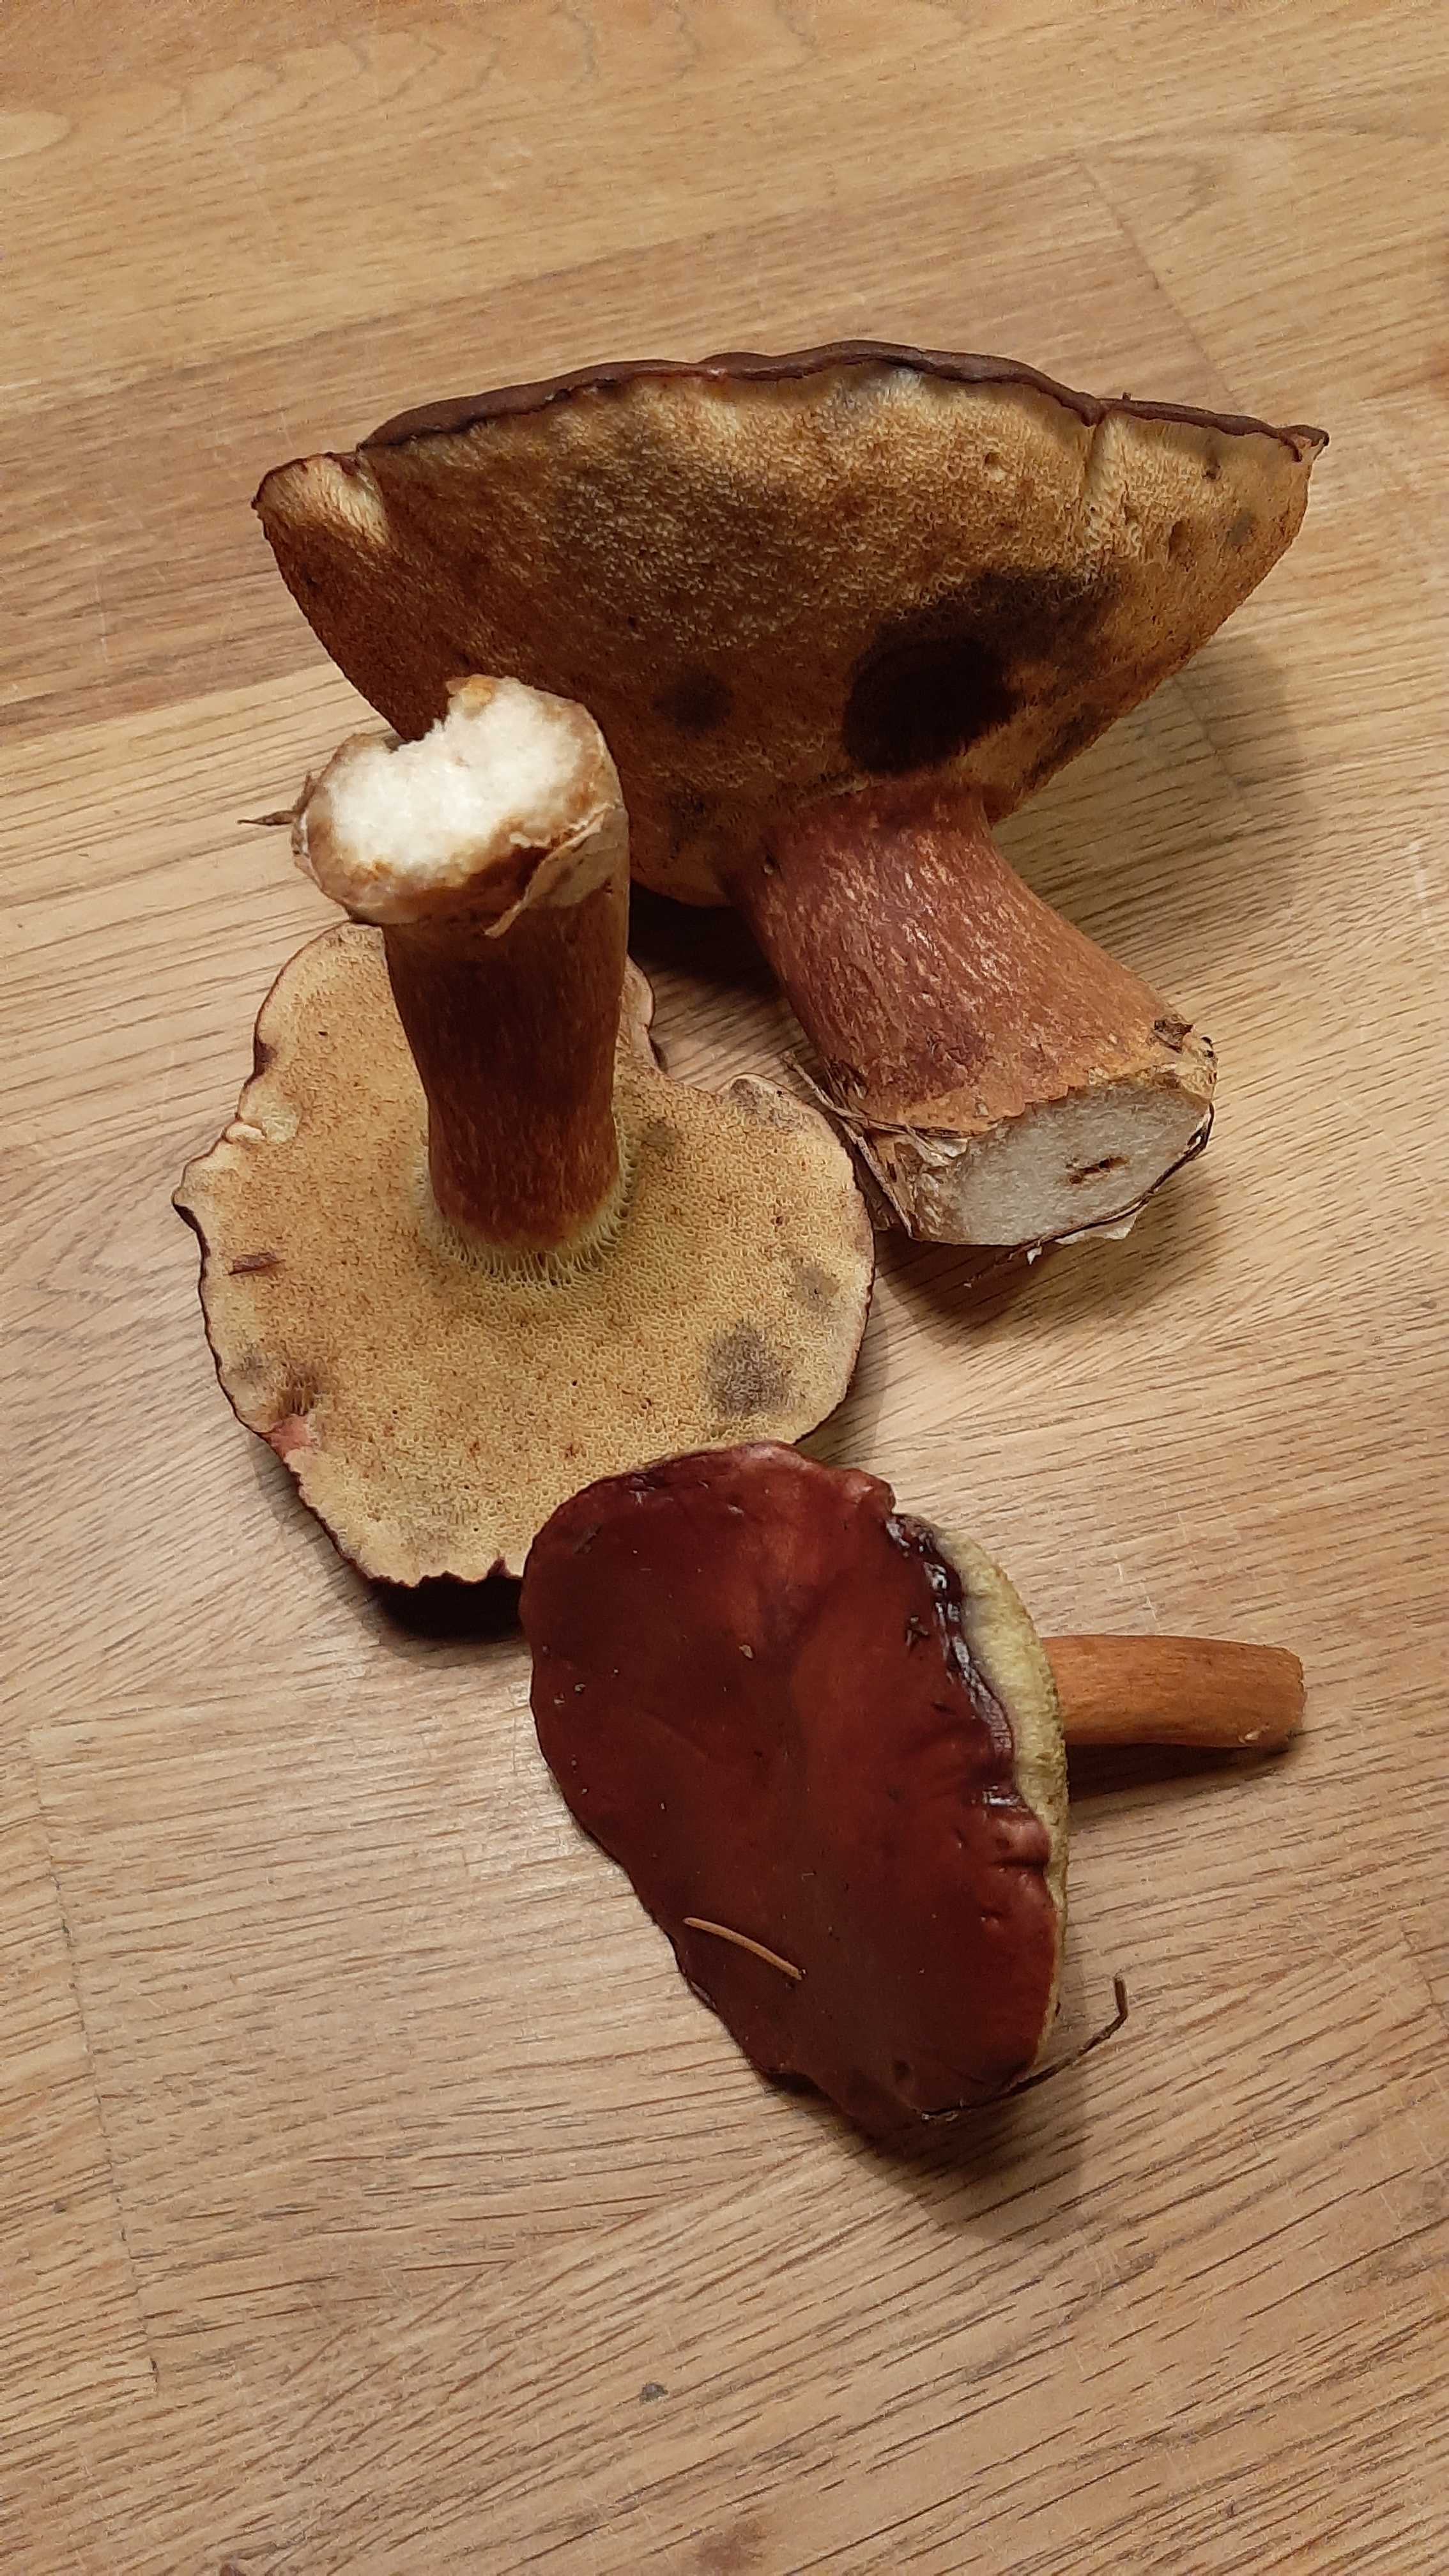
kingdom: Fungi
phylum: Basidiomycota
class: Agaricomycetes
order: Boletales
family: Boletaceae
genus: Imleria
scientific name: Imleria badia
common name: brunstokket rørhat
